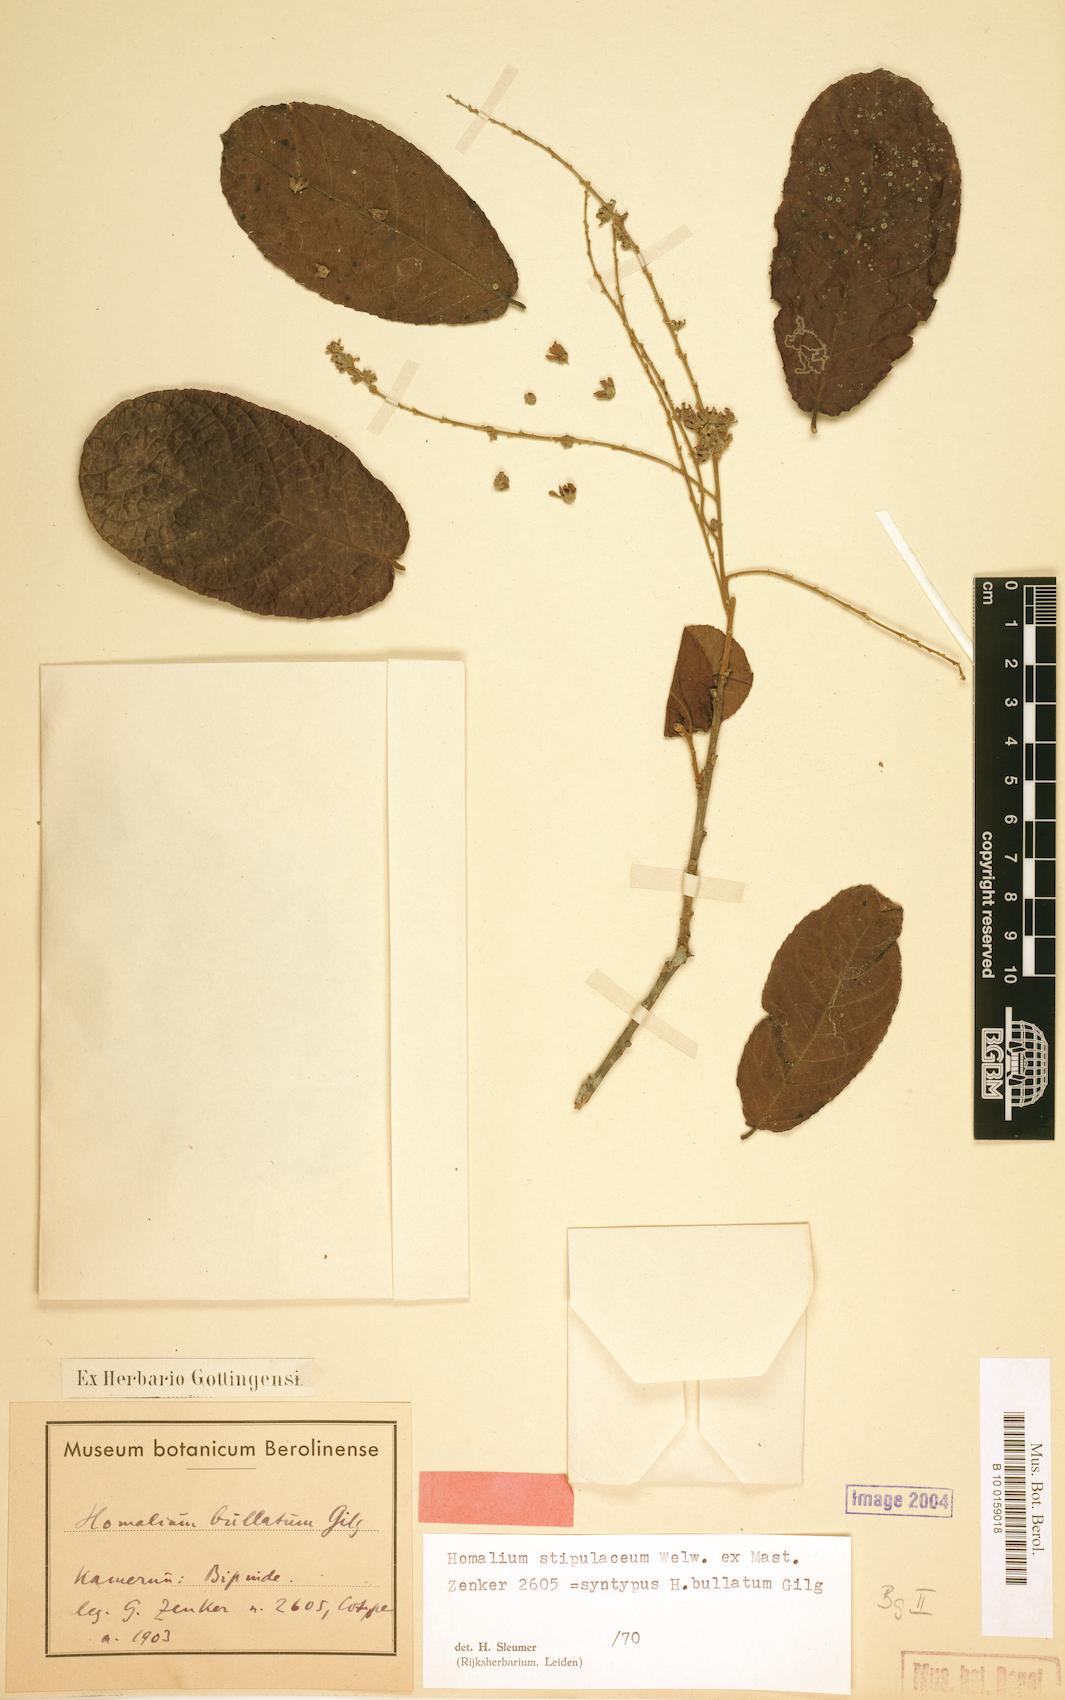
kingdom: Plantae
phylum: Tracheophyta
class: Magnoliopsida
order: Malpighiales
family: Salicaceae
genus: Homalium
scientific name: Homalium stipulaceum
